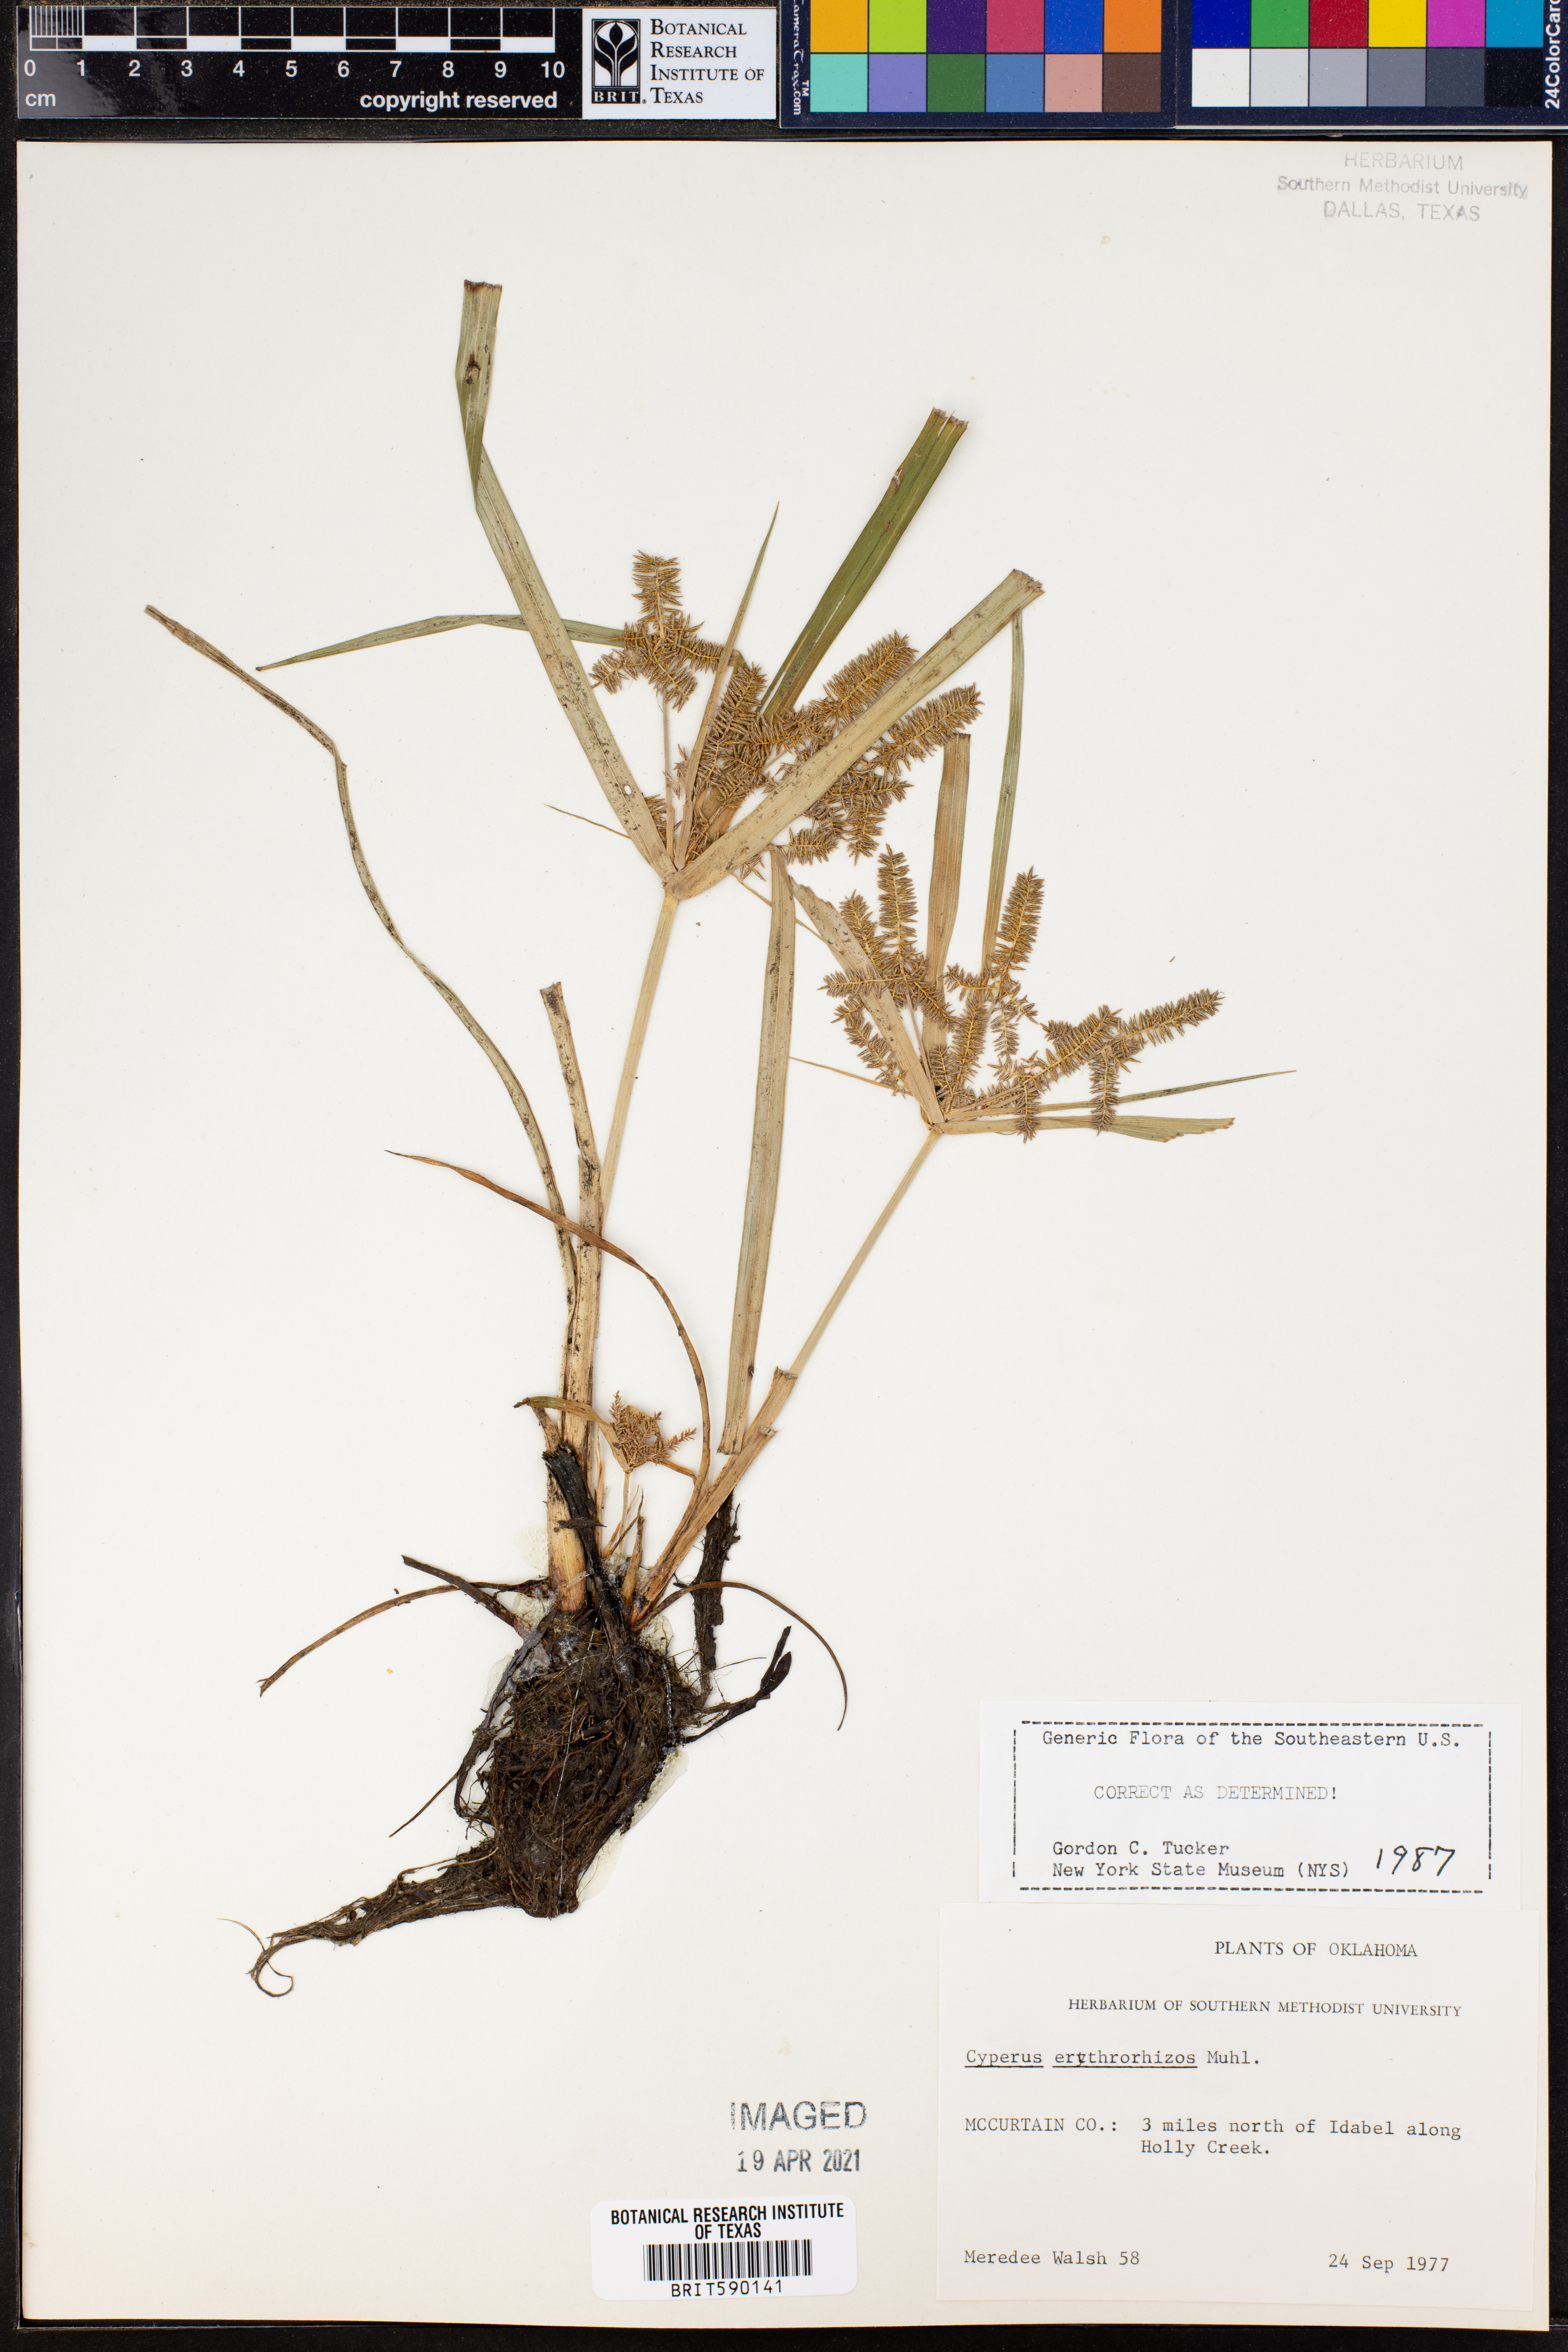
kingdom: Plantae
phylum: Tracheophyta
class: Liliopsida
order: Poales
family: Cyperaceae
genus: Cyperus
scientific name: Cyperus erythrorhizos
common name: Red-root flat sedge
